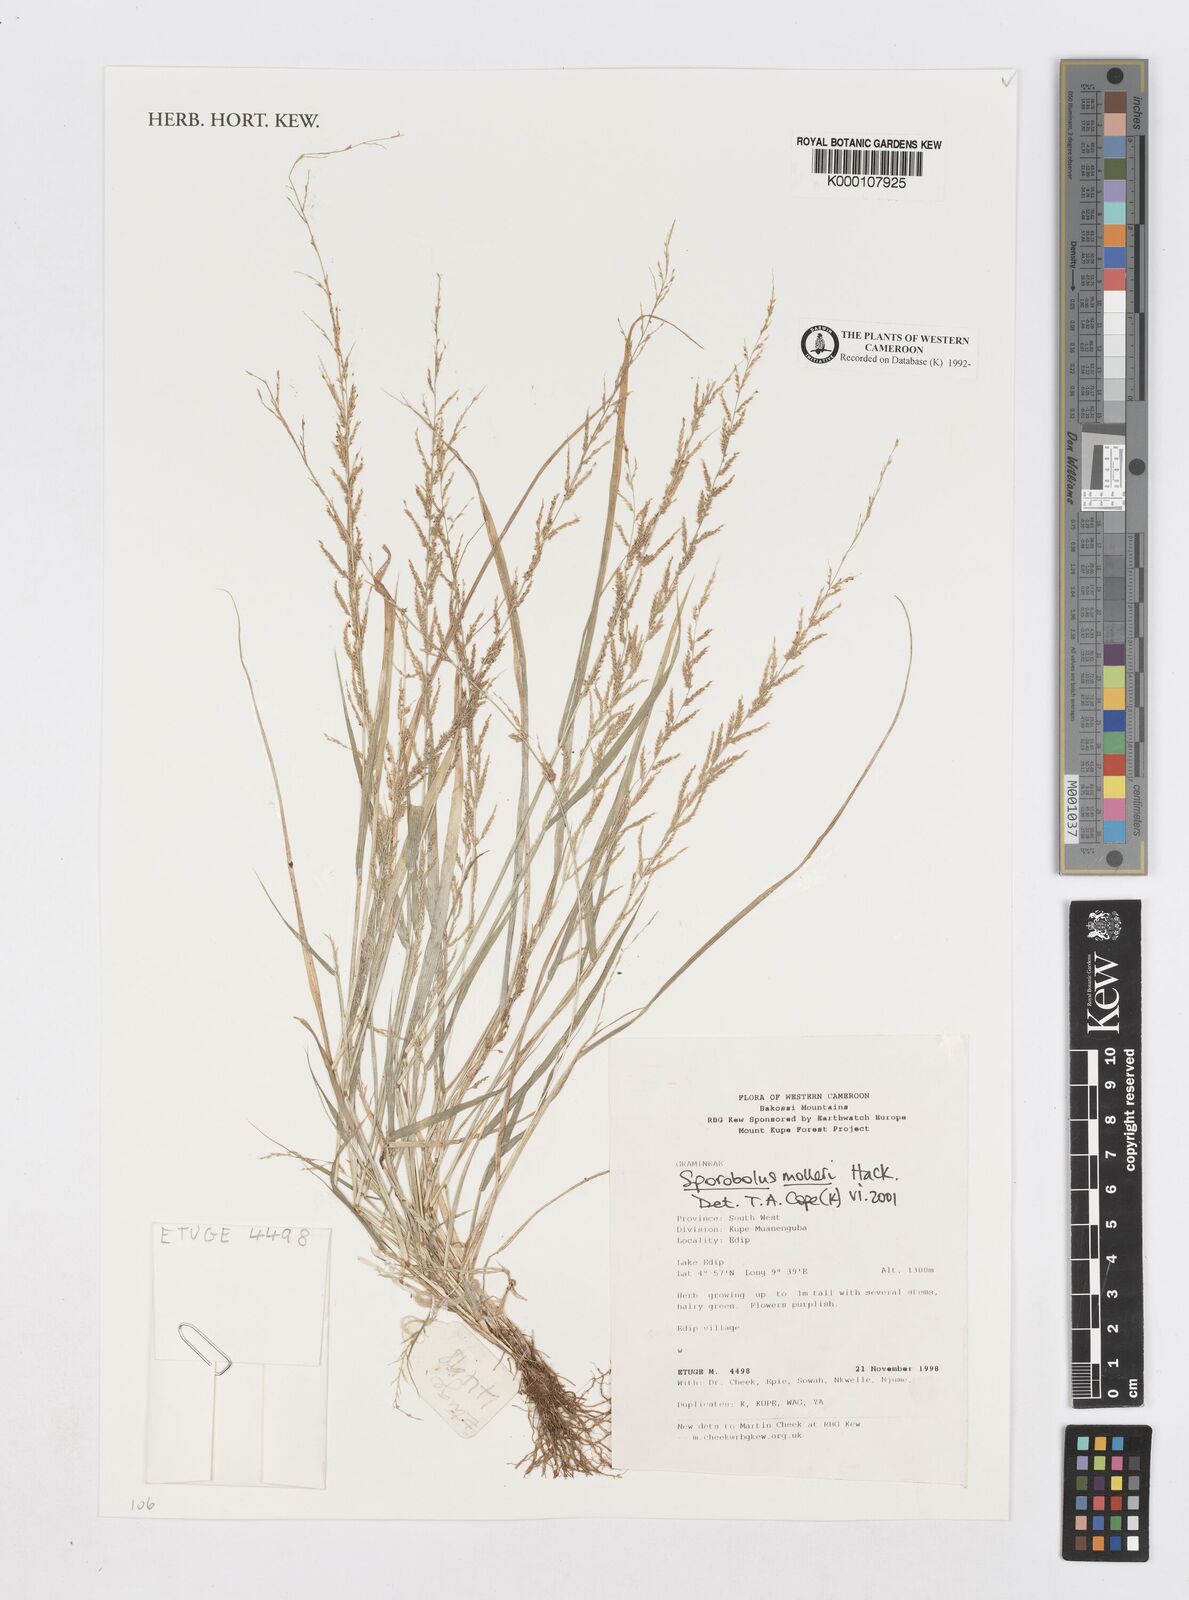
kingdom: Plantae
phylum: Tracheophyta
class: Liliopsida
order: Poales
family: Poaceae
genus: Sporobolus
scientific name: Sporobolus molleri
